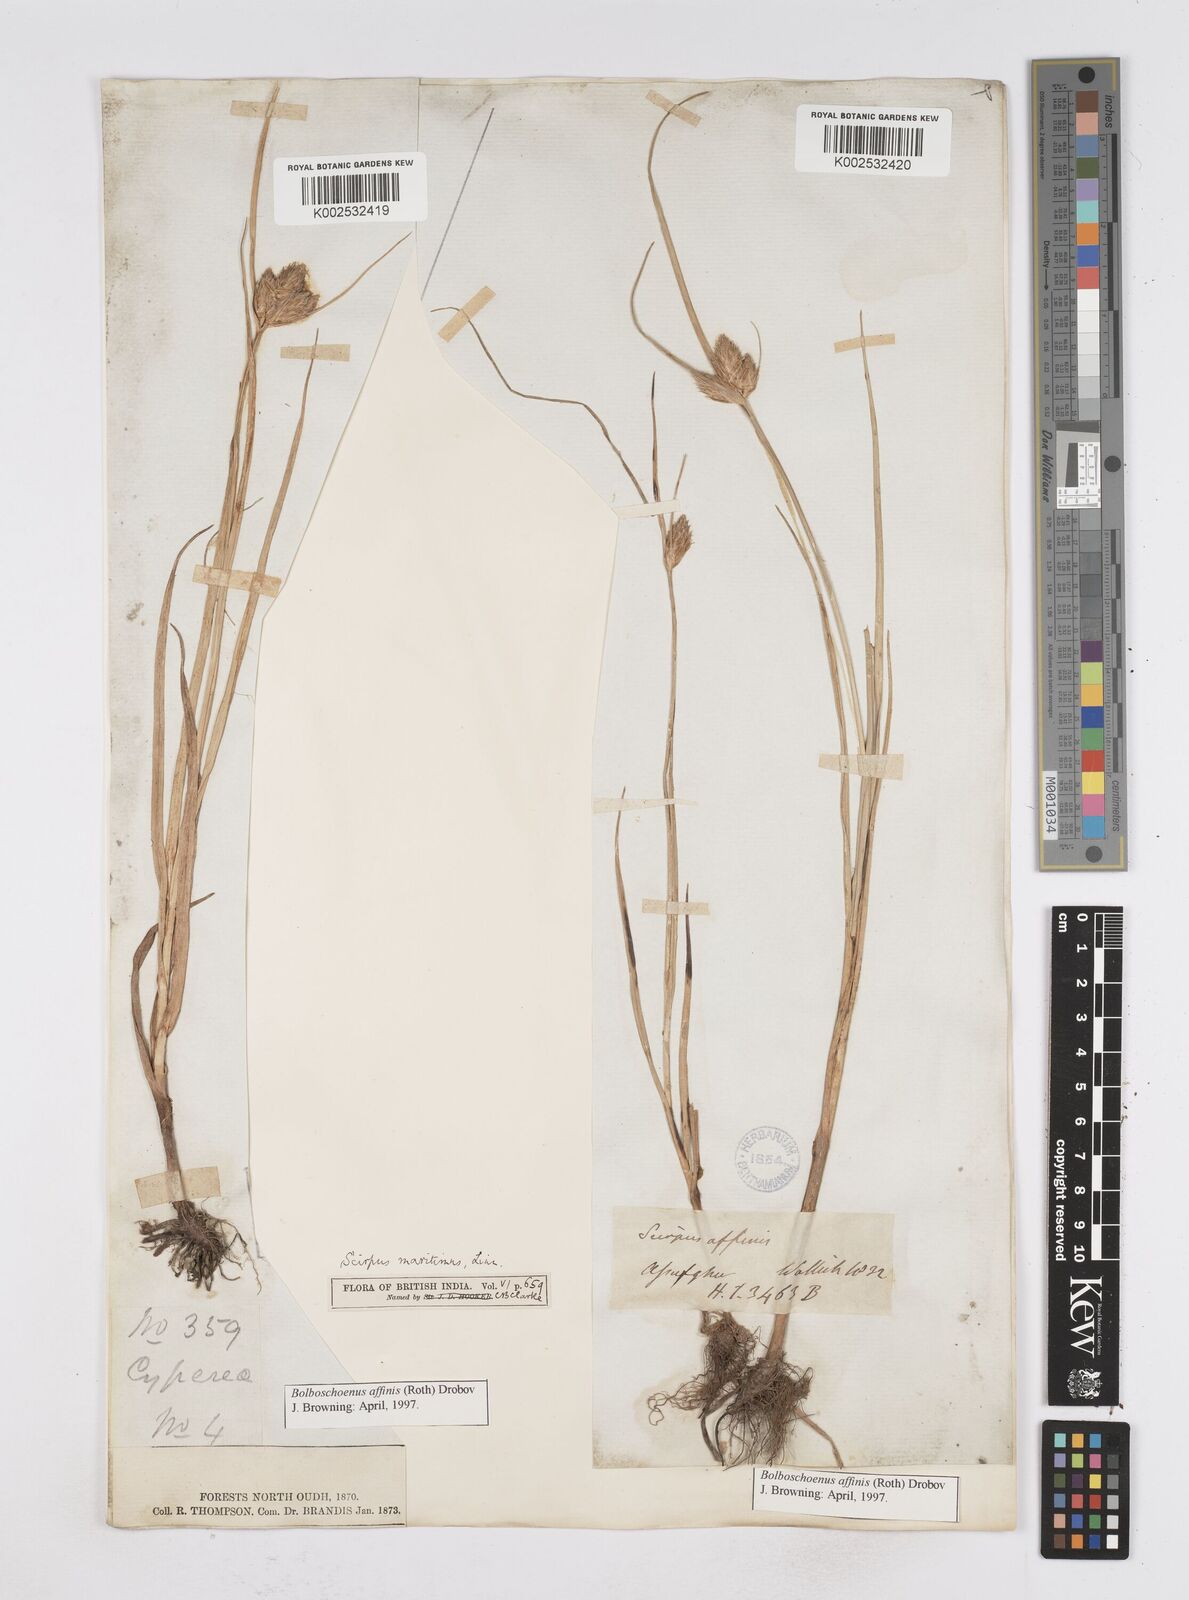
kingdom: Plantae
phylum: Tracheophyta
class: Liliopsida
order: Poales
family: Cyperaceae
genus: Bolboschoenus
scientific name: Bolboschoenus maritimus
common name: Sea club-rush
